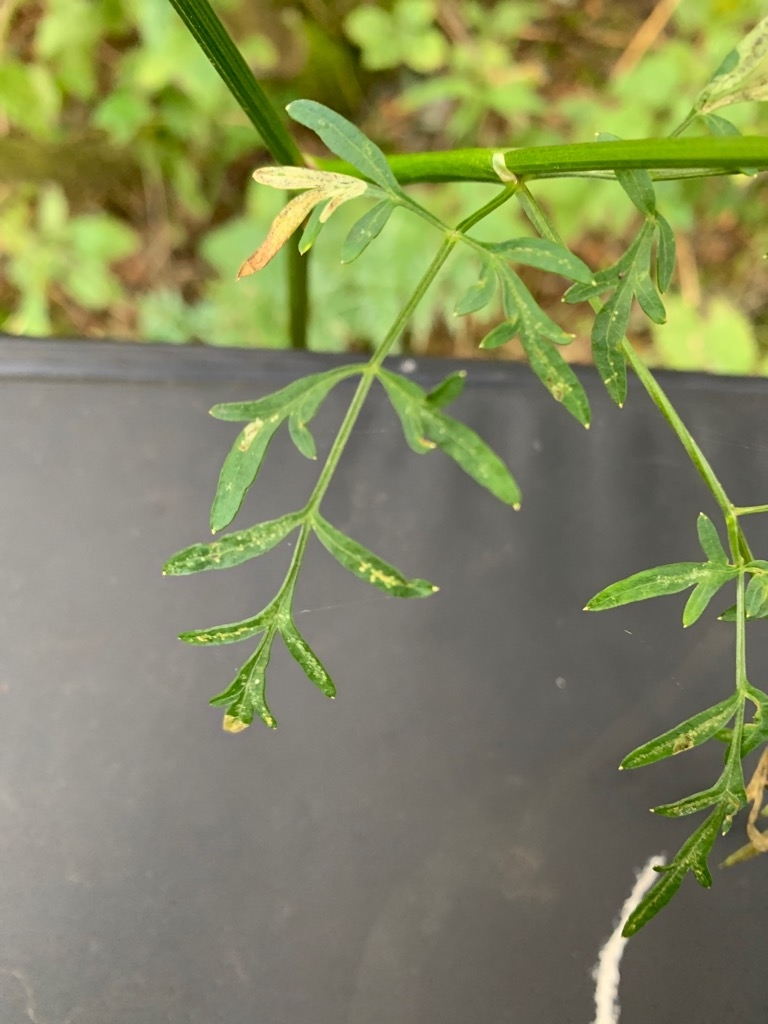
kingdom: Plantae
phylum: Tracheophyta
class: Magnoliopsida
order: Apiales
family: Apiaceae
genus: Thysselinum
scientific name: Thysselinum palustre
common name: Kær-svovlrod
